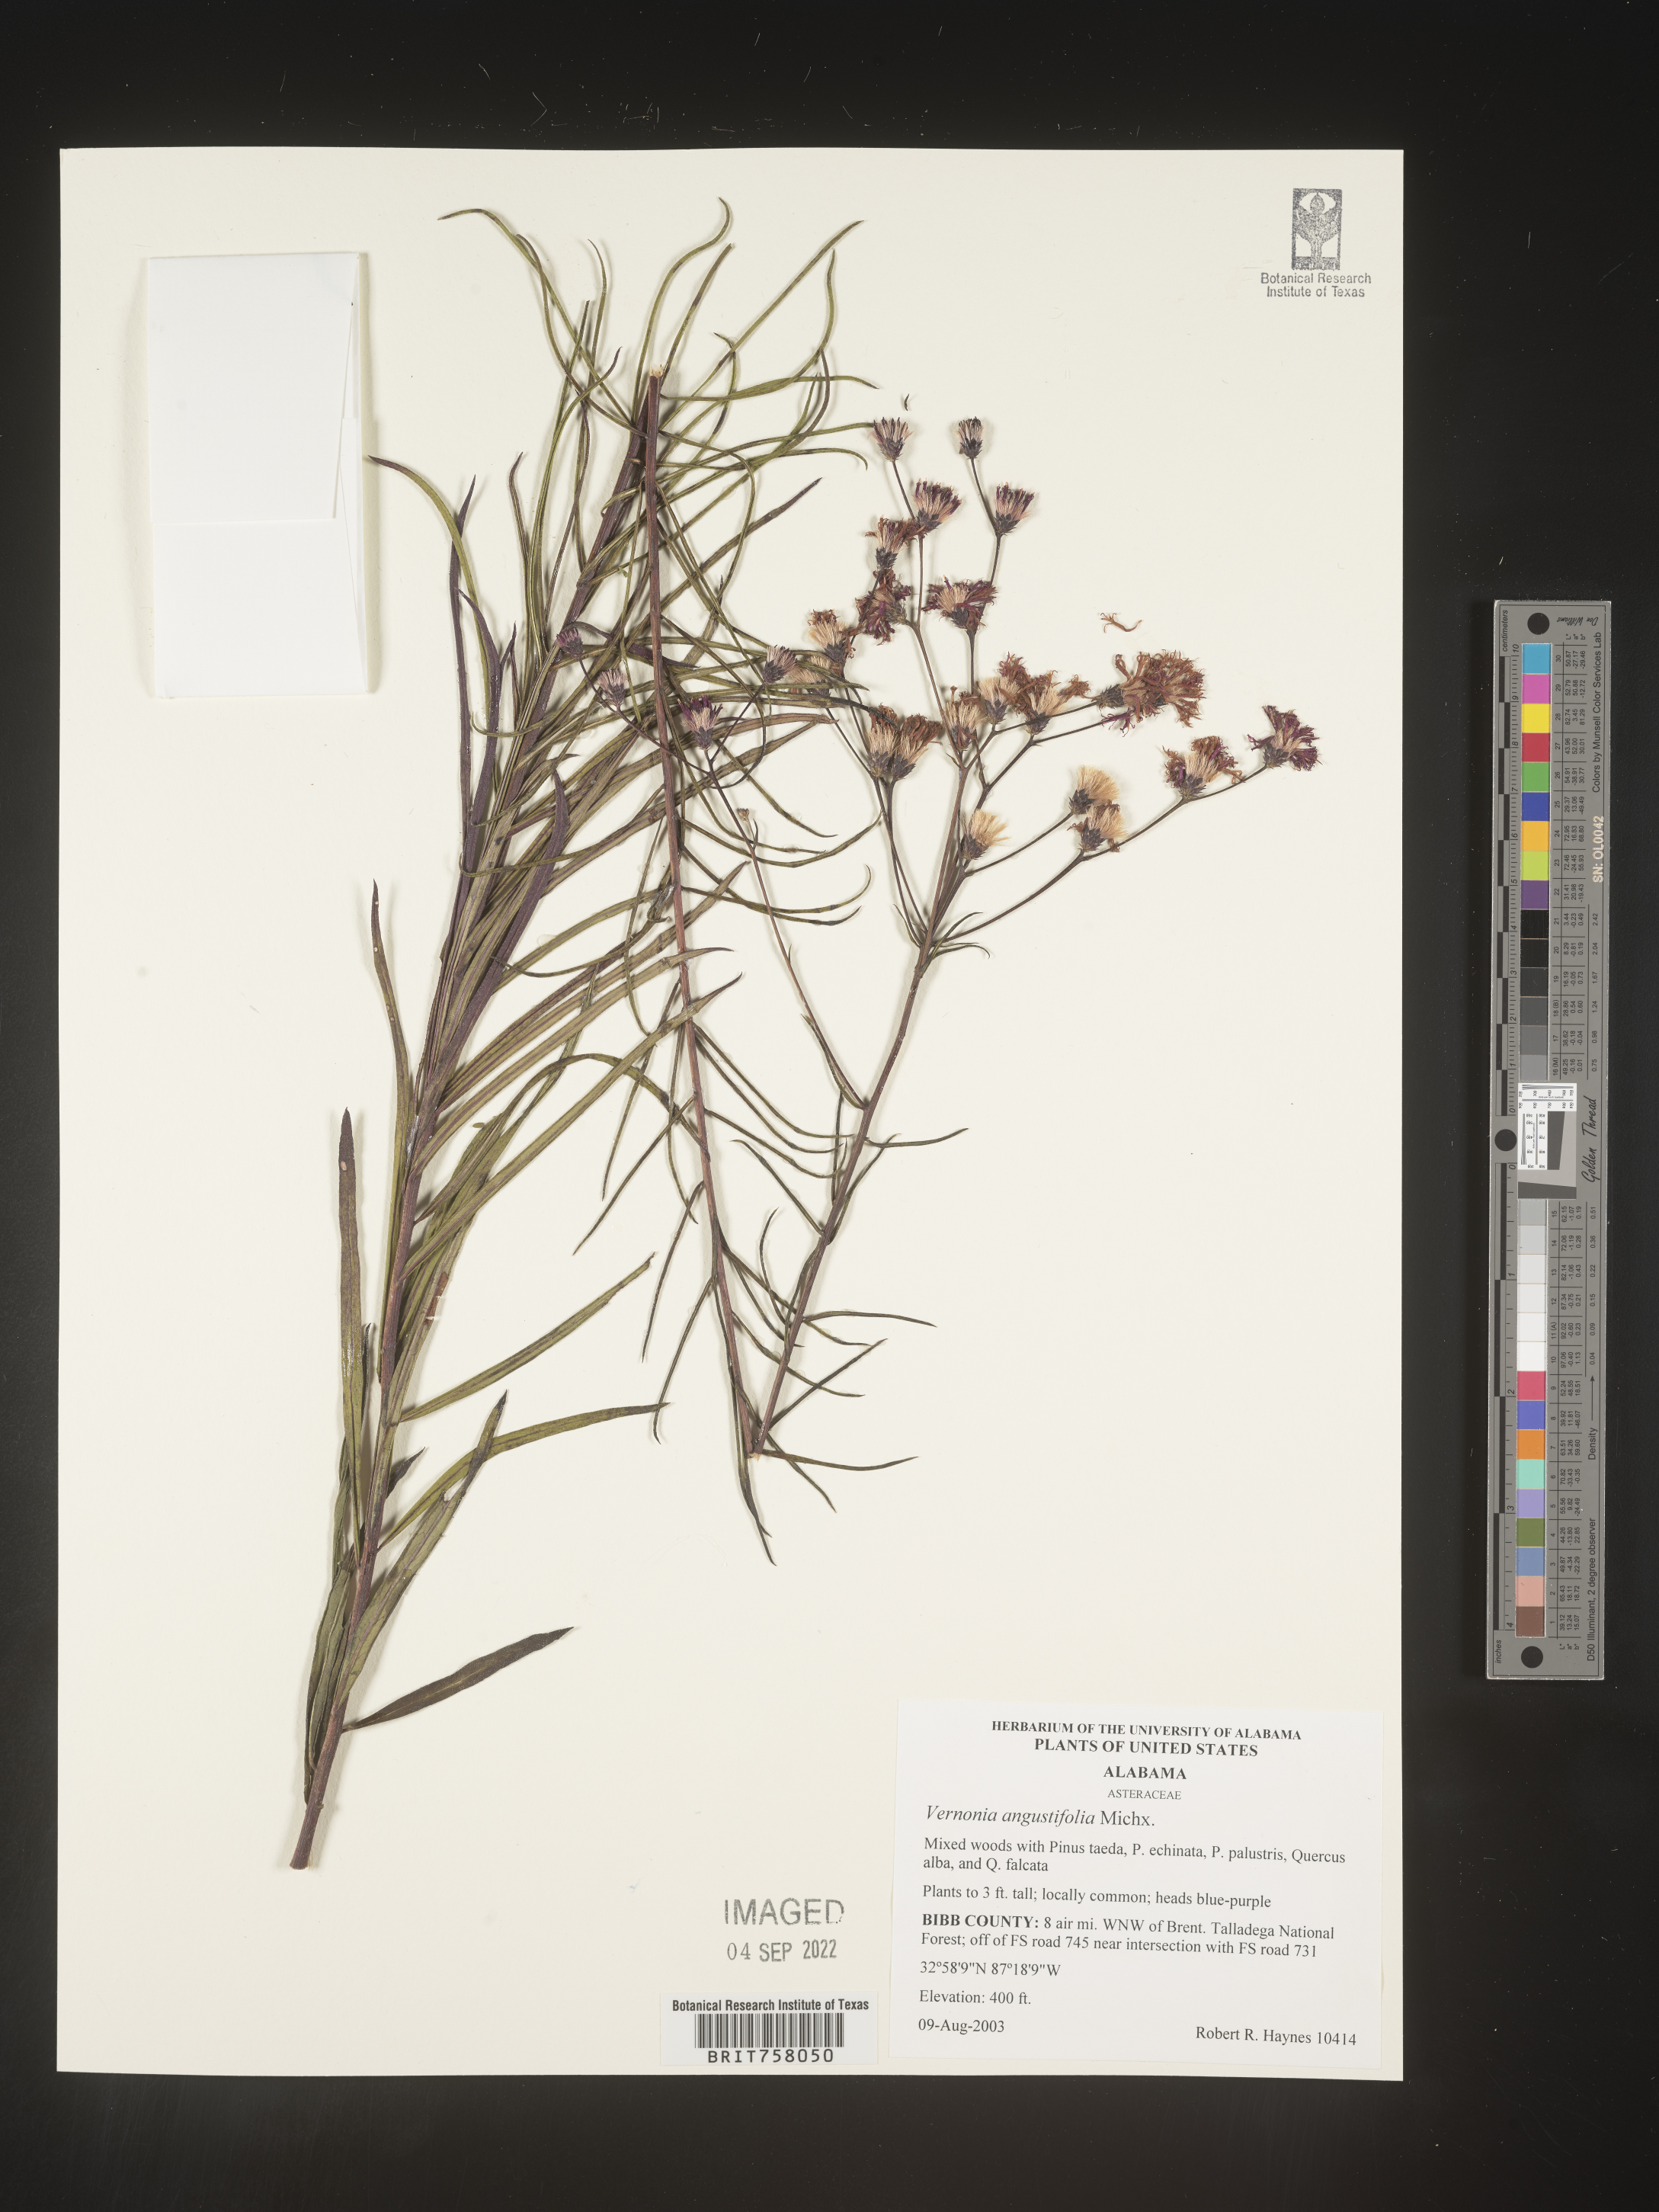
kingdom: Plantae
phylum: Tracheophyta
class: Magnoliopsida
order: Asterales
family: Asteraceae
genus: Vernonia
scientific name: Vernonia angustifolia
